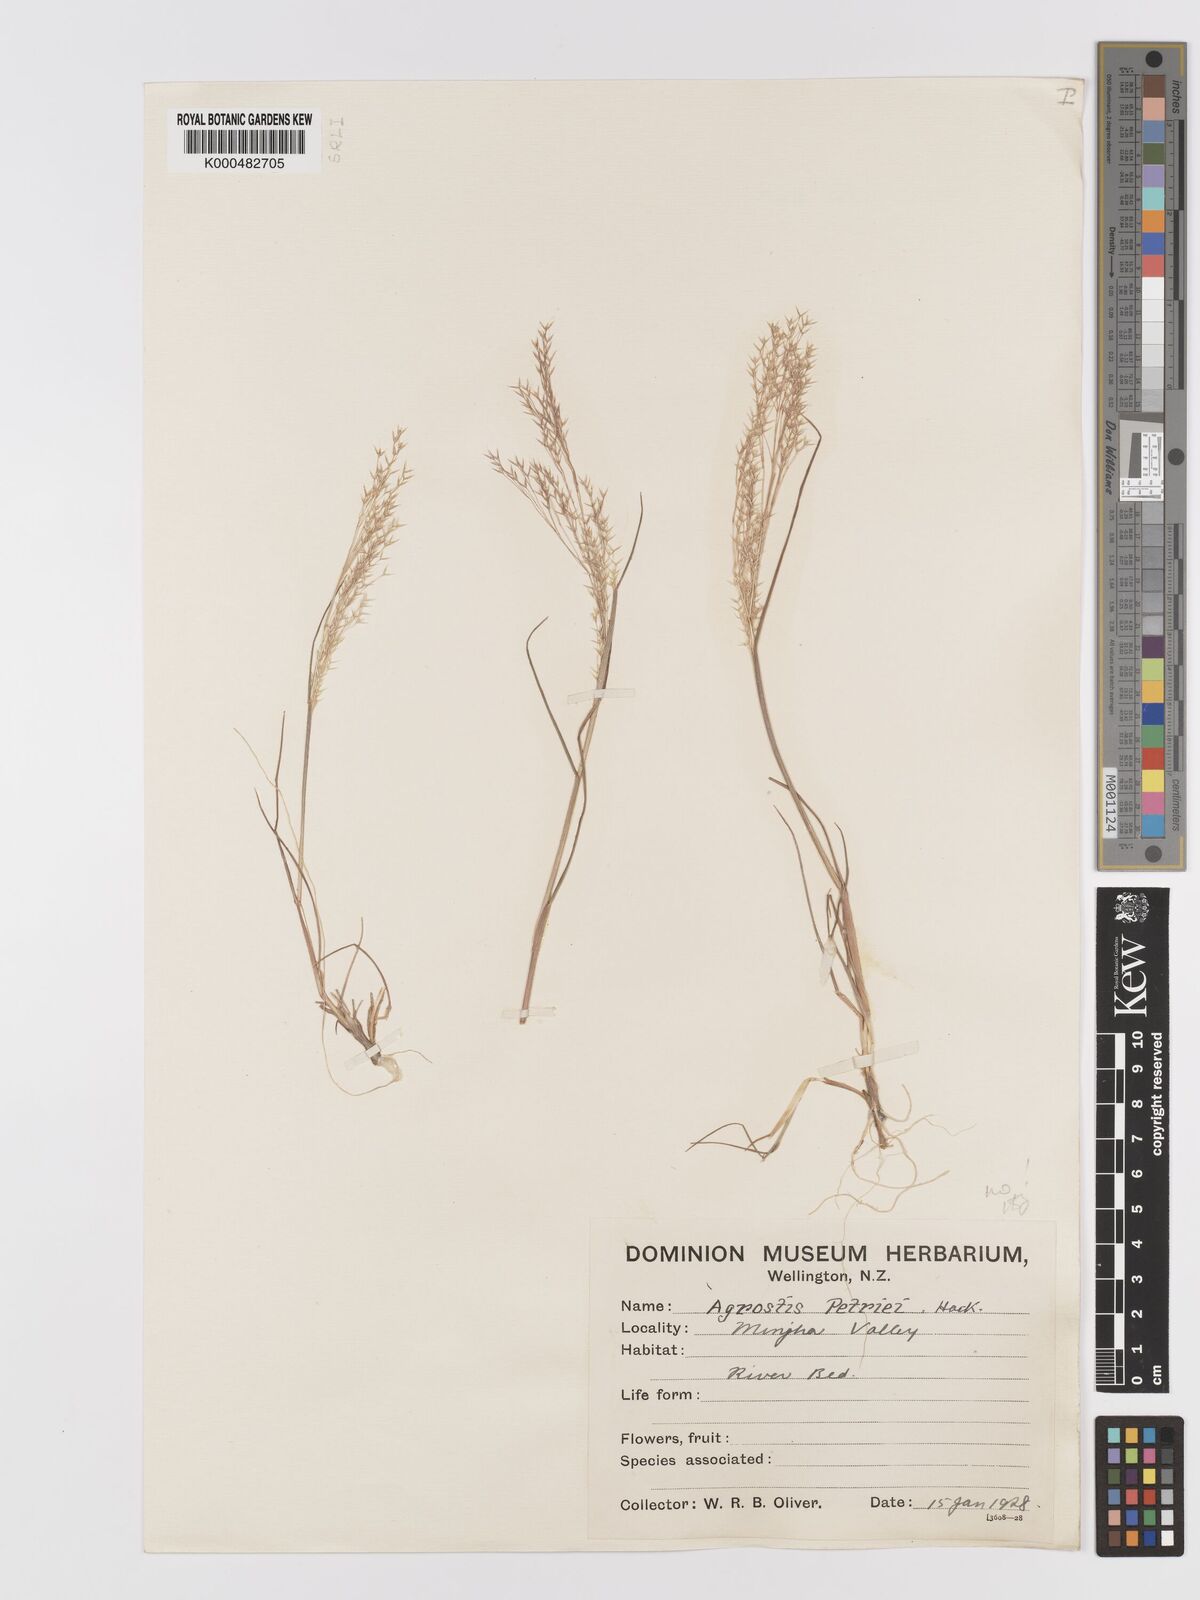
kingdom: Plantae
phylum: Tracheophyta
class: Liliopsida
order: Poales
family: Poaceae
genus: Agrostis
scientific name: Agrostis petriei
